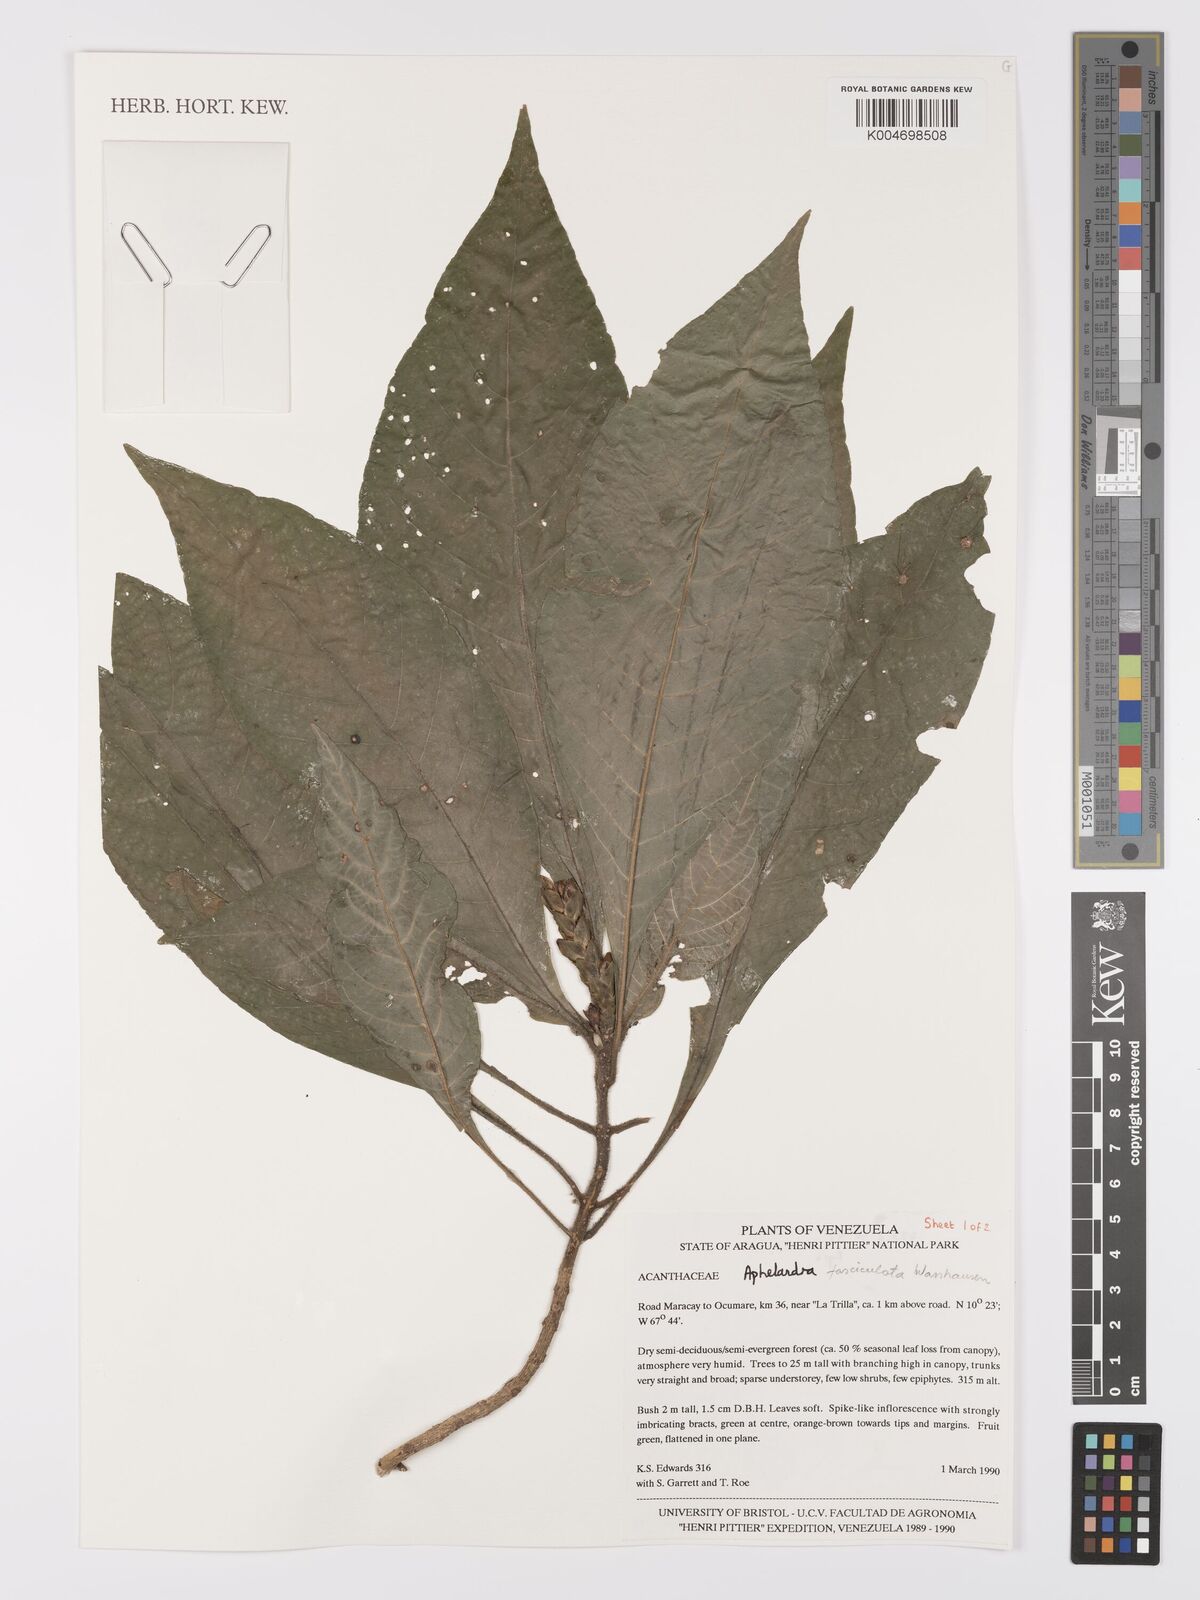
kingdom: Plantae
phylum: Tracheophyta
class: Magnoliopsida
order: Lamiales
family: Acanthaceae
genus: Aphelandra
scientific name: Aphelandra fasciculata
